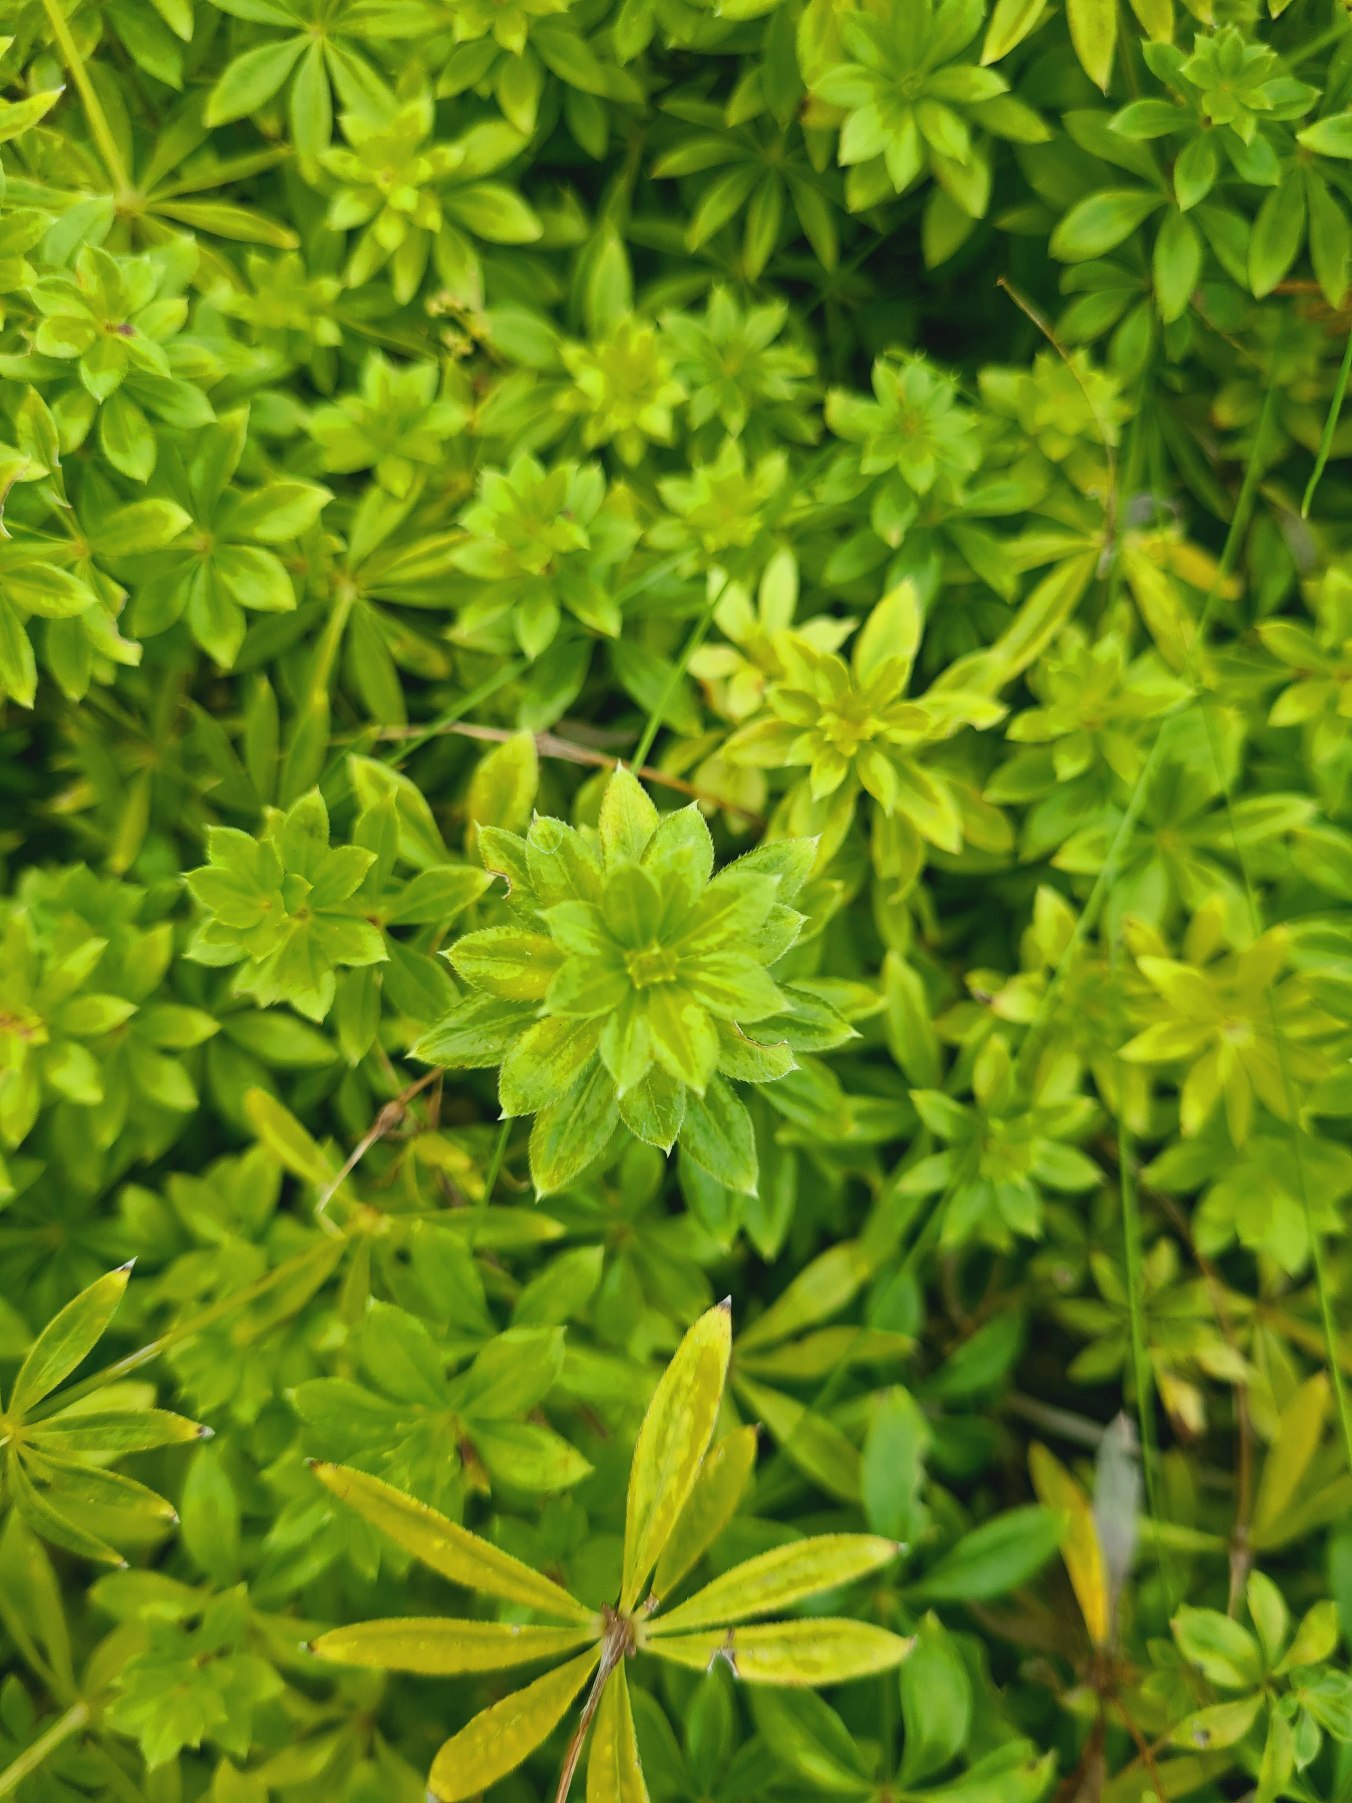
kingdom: Plantae
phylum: Tracheophyta
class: Magnoliopsida
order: Gentianales
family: Rubiaceae
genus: Galium
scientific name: Galium mollugo
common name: Hvid snerre
